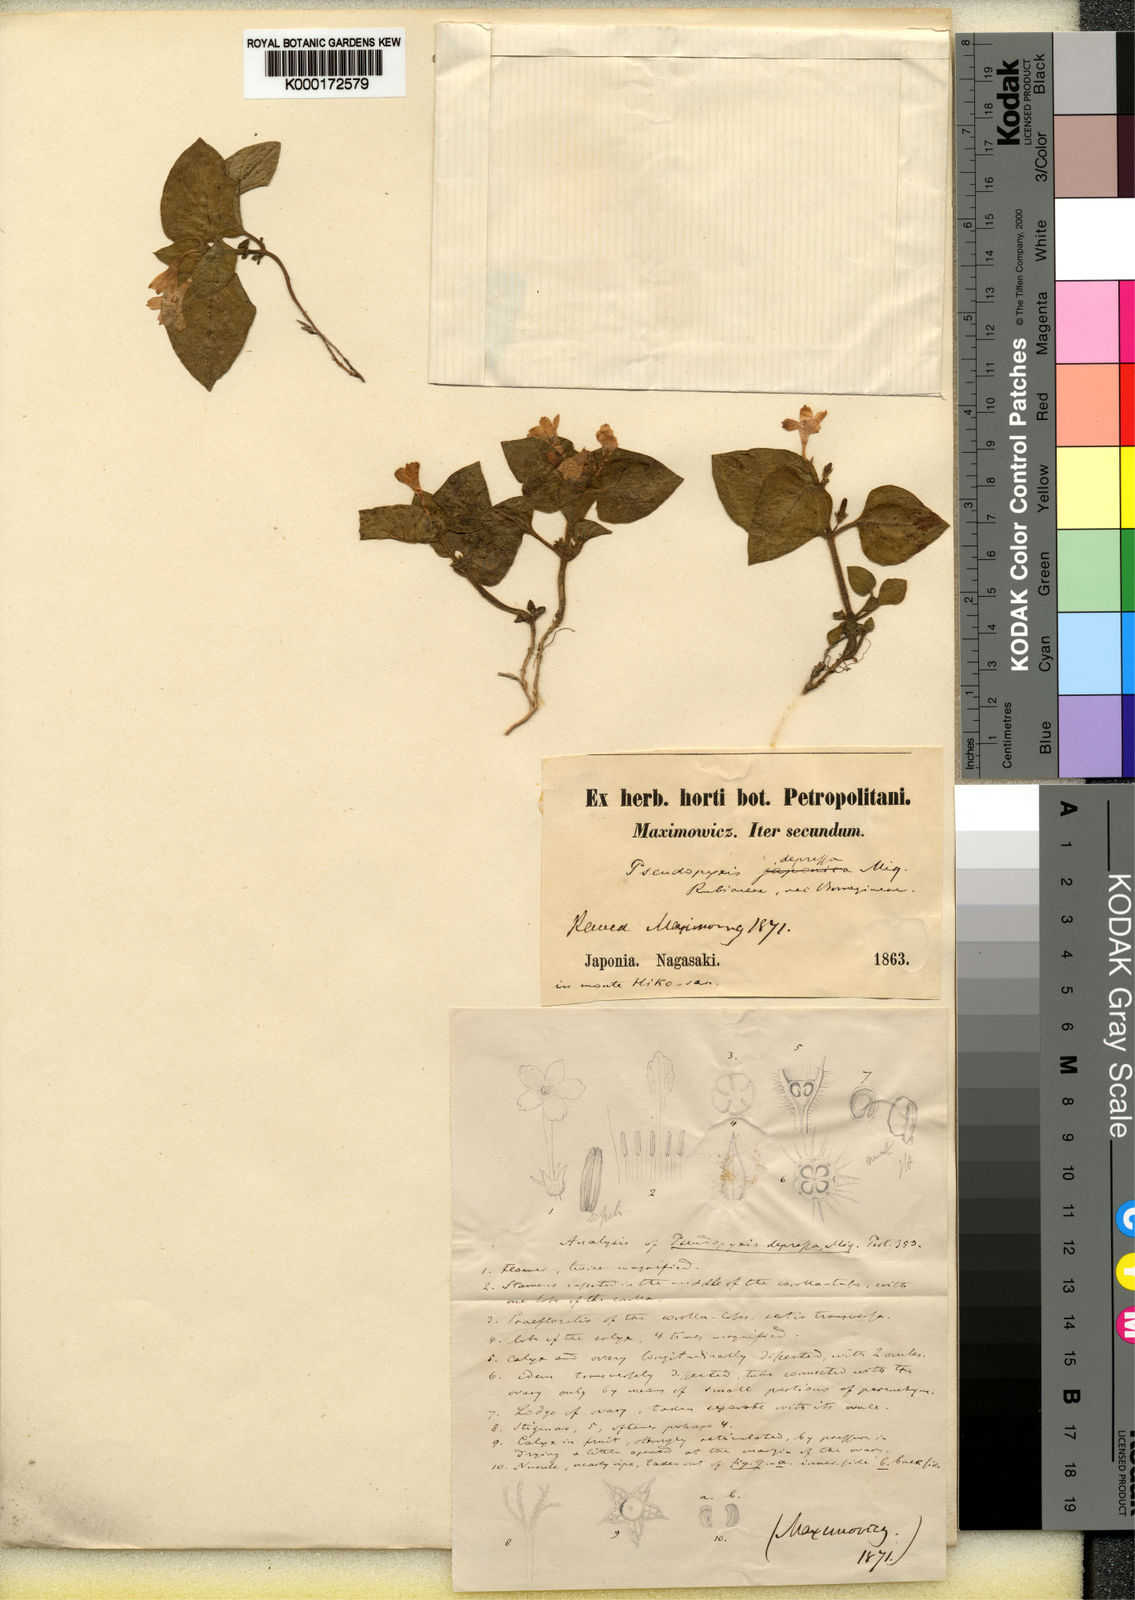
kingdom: Plantae
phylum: Tracheophyta
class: Magnoliopsida
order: Gentianales
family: Rubiaceae
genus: Pseudopyxis
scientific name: Pseudopyxis depressa
